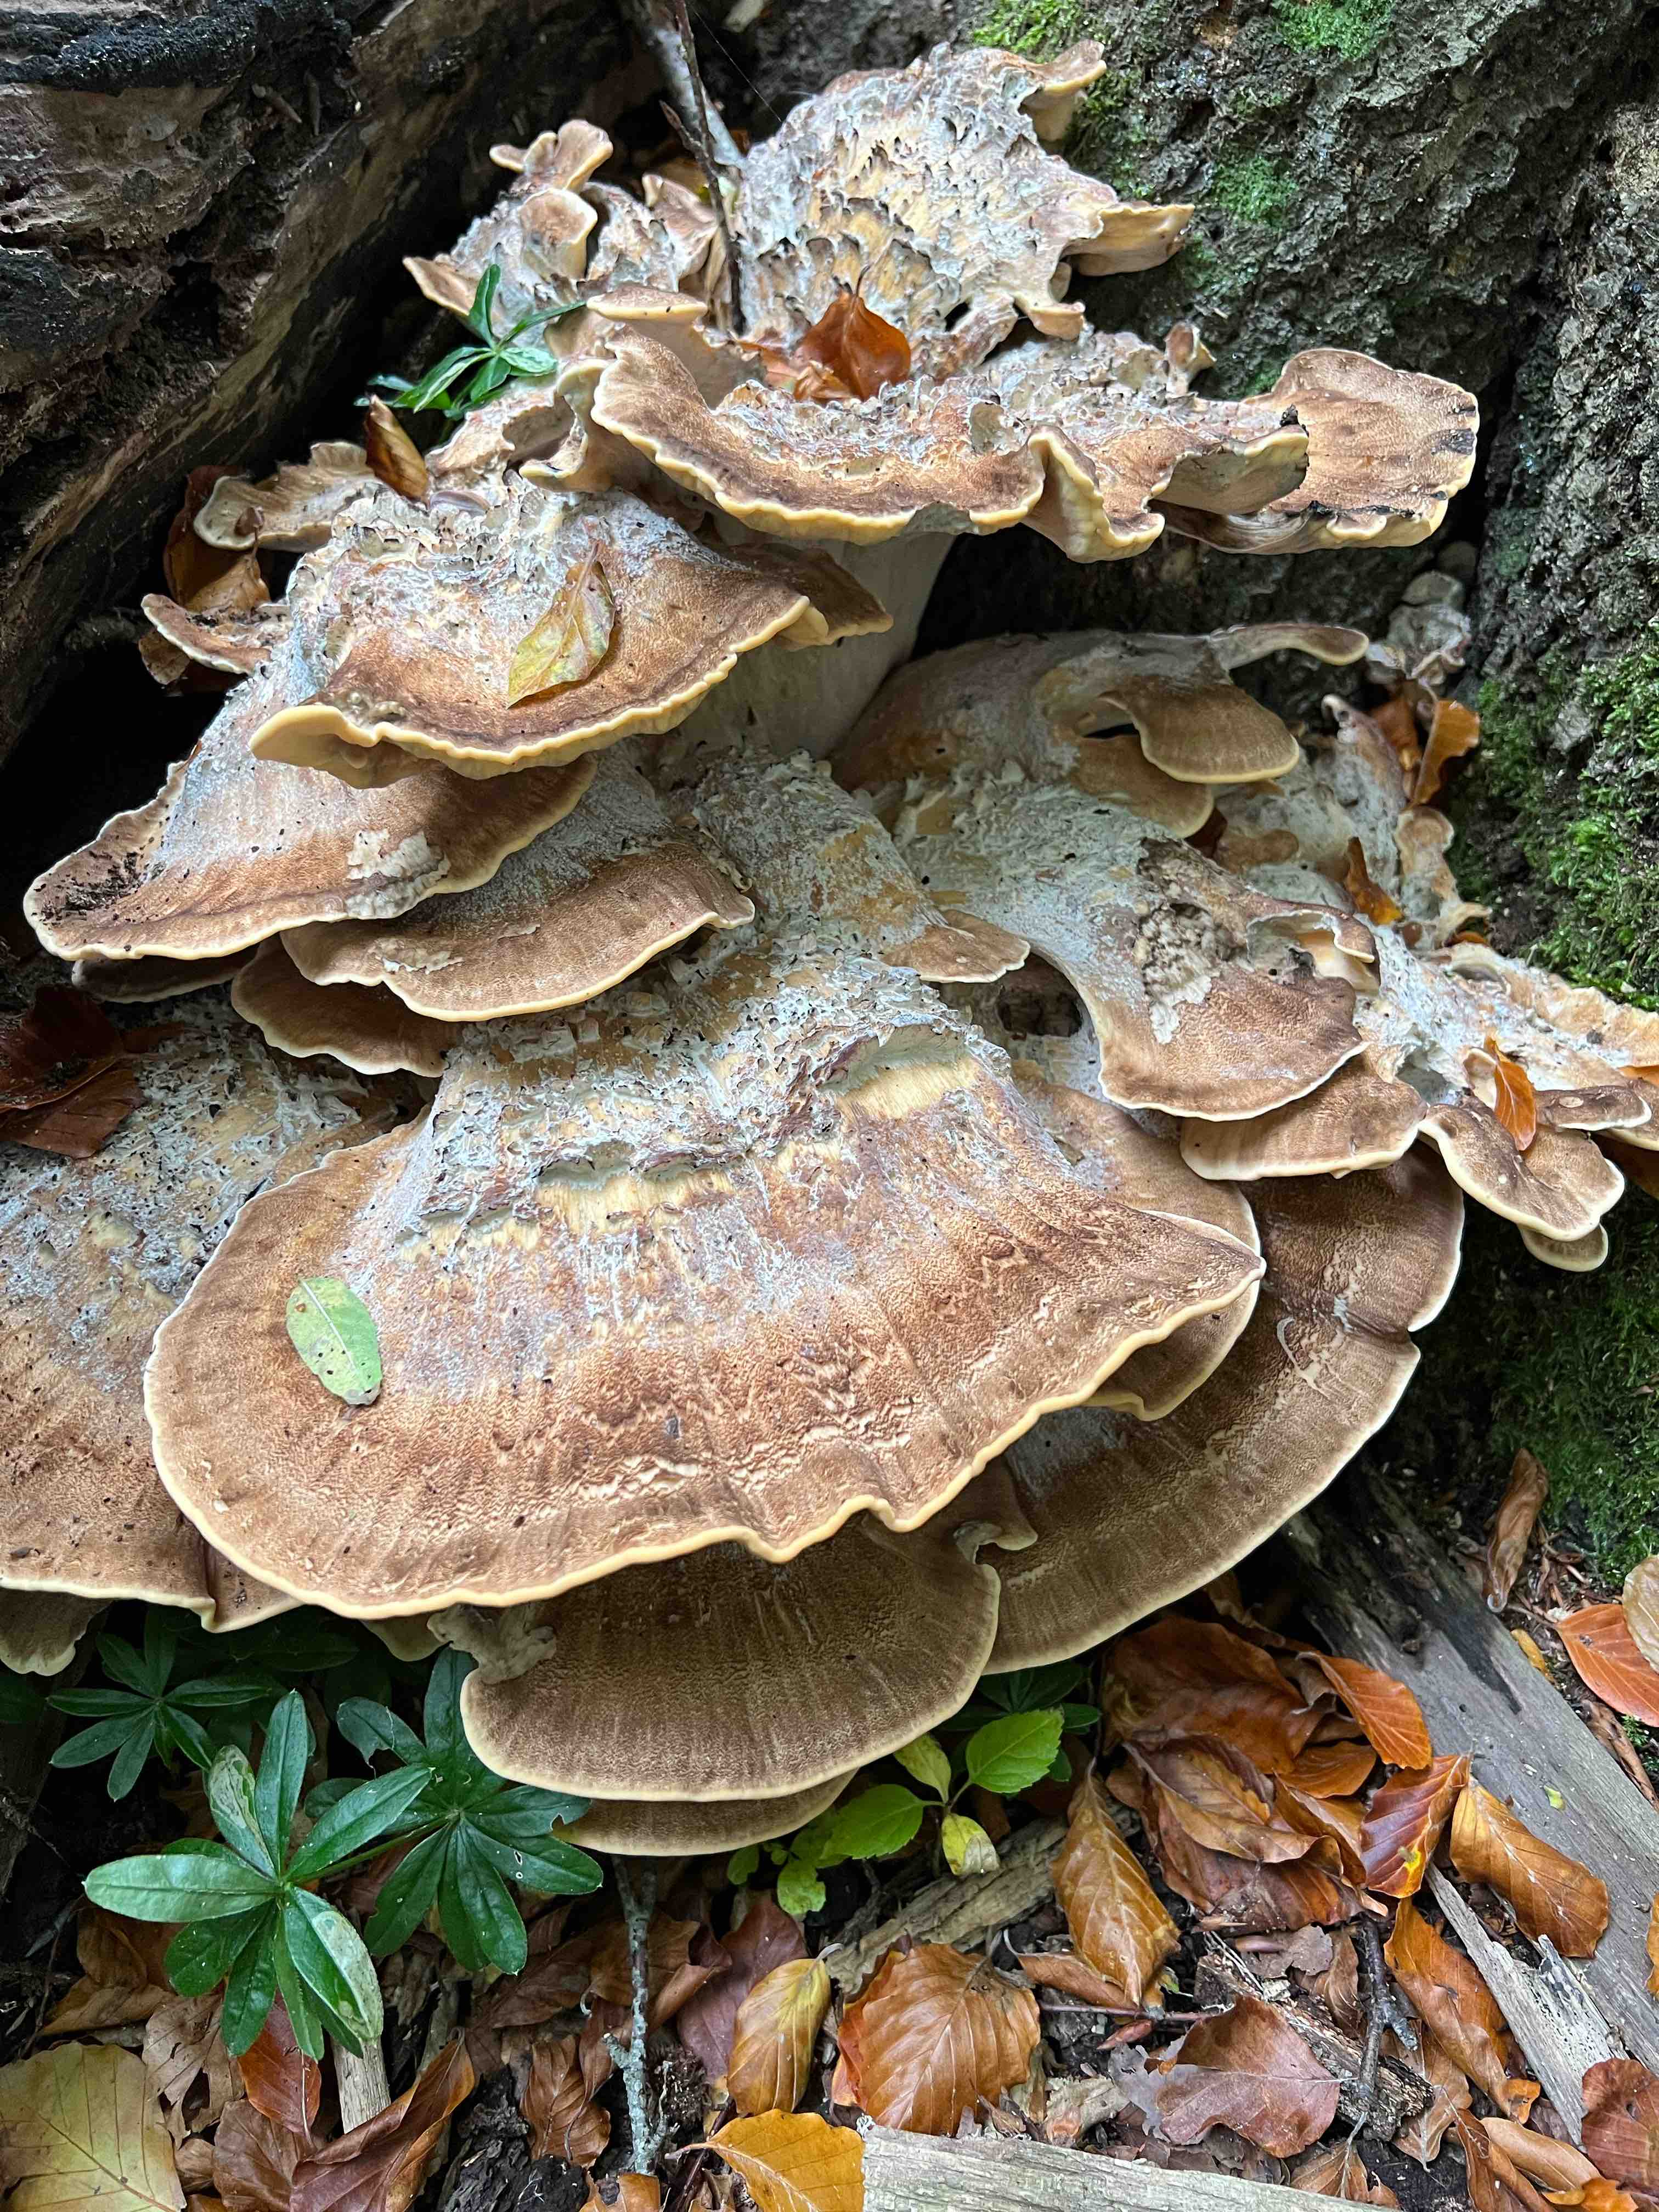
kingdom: Fungi
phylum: Basidiomycota
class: Agaricomycetes
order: Polyporales
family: Meripilaceae
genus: Meripilus
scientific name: Meripilus giganteus
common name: kæmpeporesvamp
